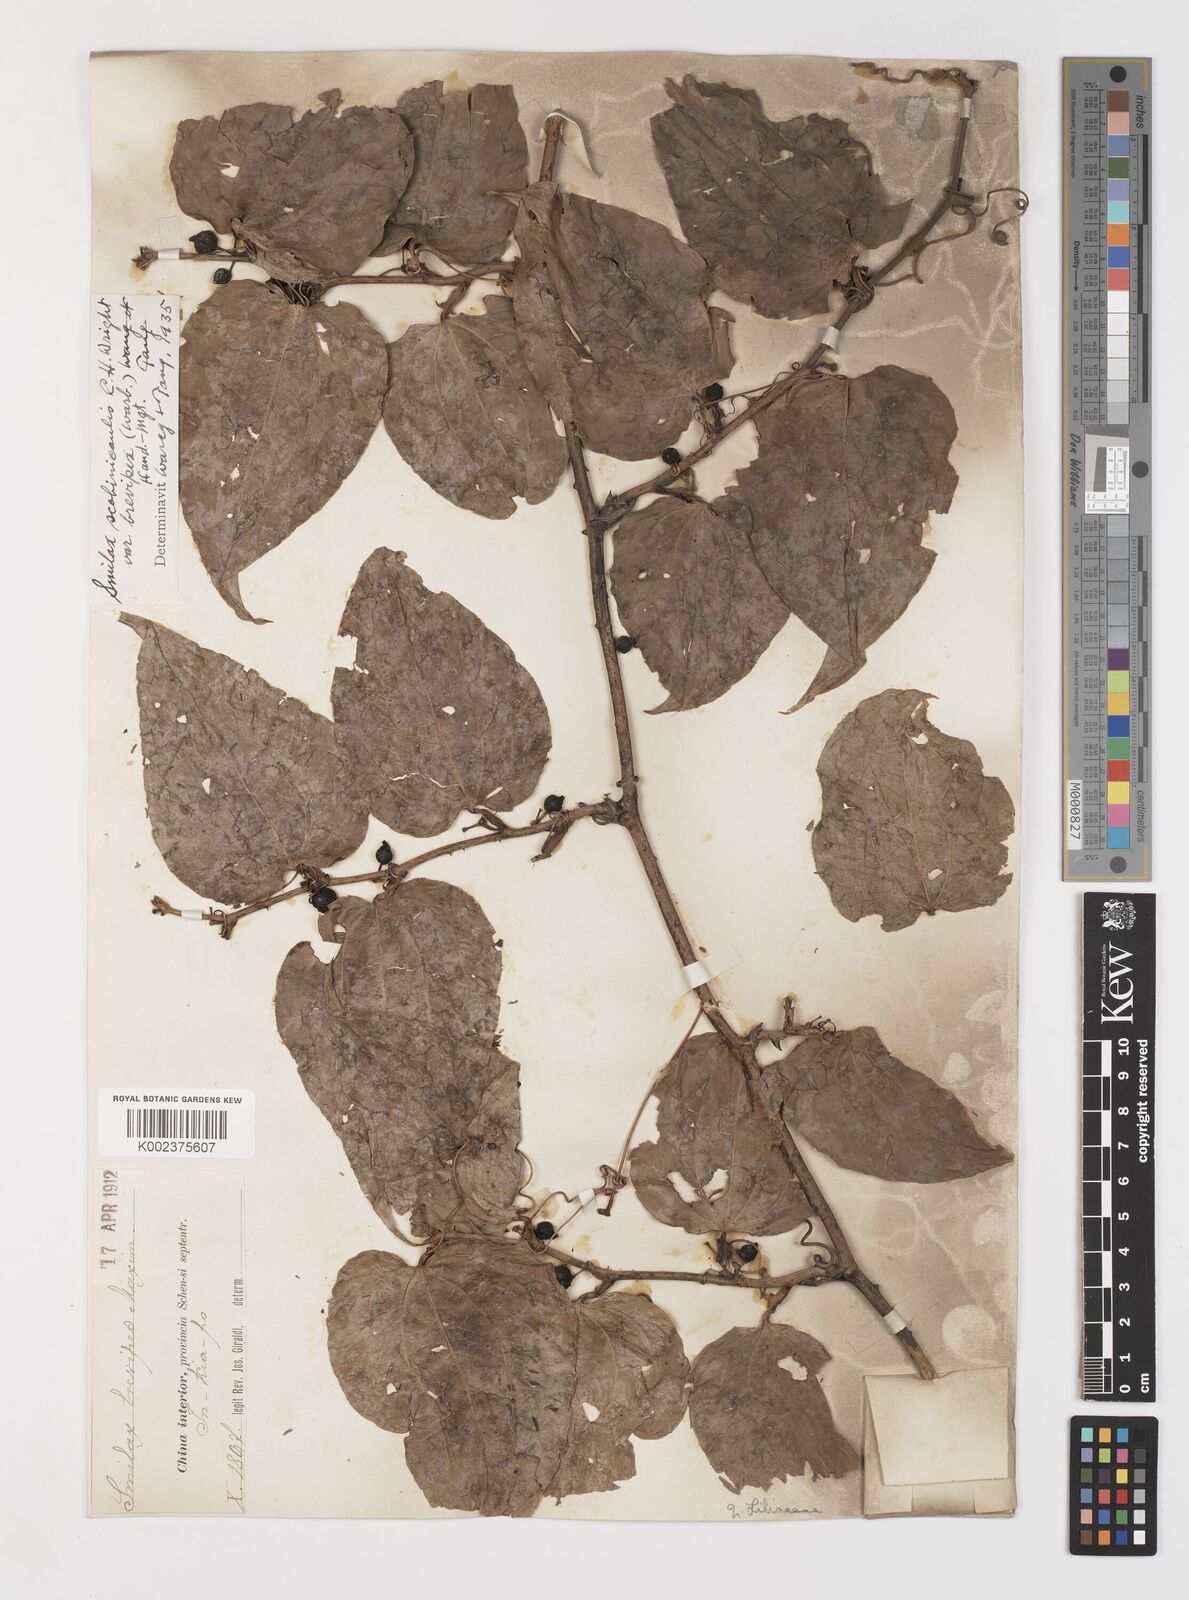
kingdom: Plantae
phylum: Tracheophyta
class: Liliopsida
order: Liliales
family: Smilacaceae
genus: Smilax
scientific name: Smilax scobinicaulis
